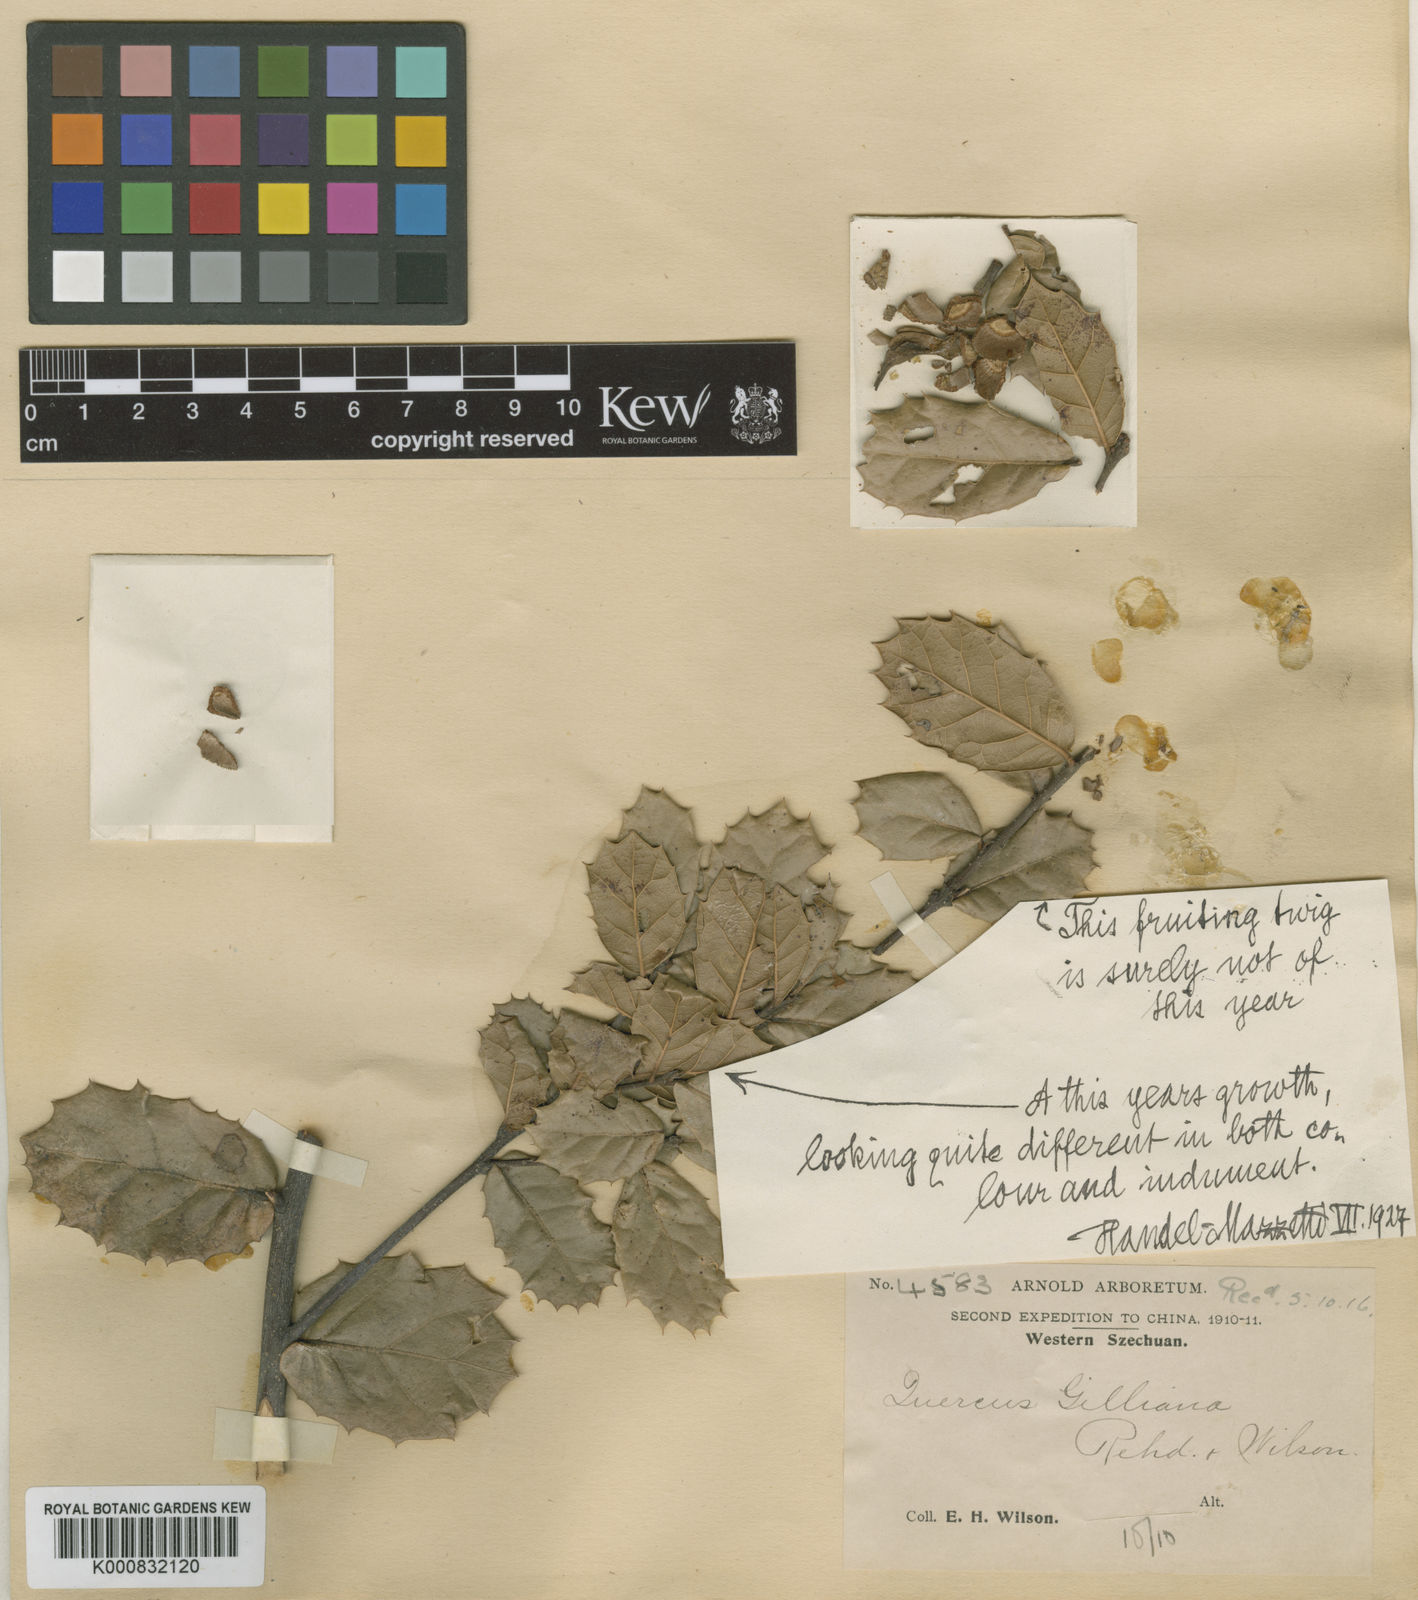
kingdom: Plantae
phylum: Tracheophyta
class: Magnoliopsida
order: Fagales
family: Fagaceae
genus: Quercus
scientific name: Quercus gilliana
